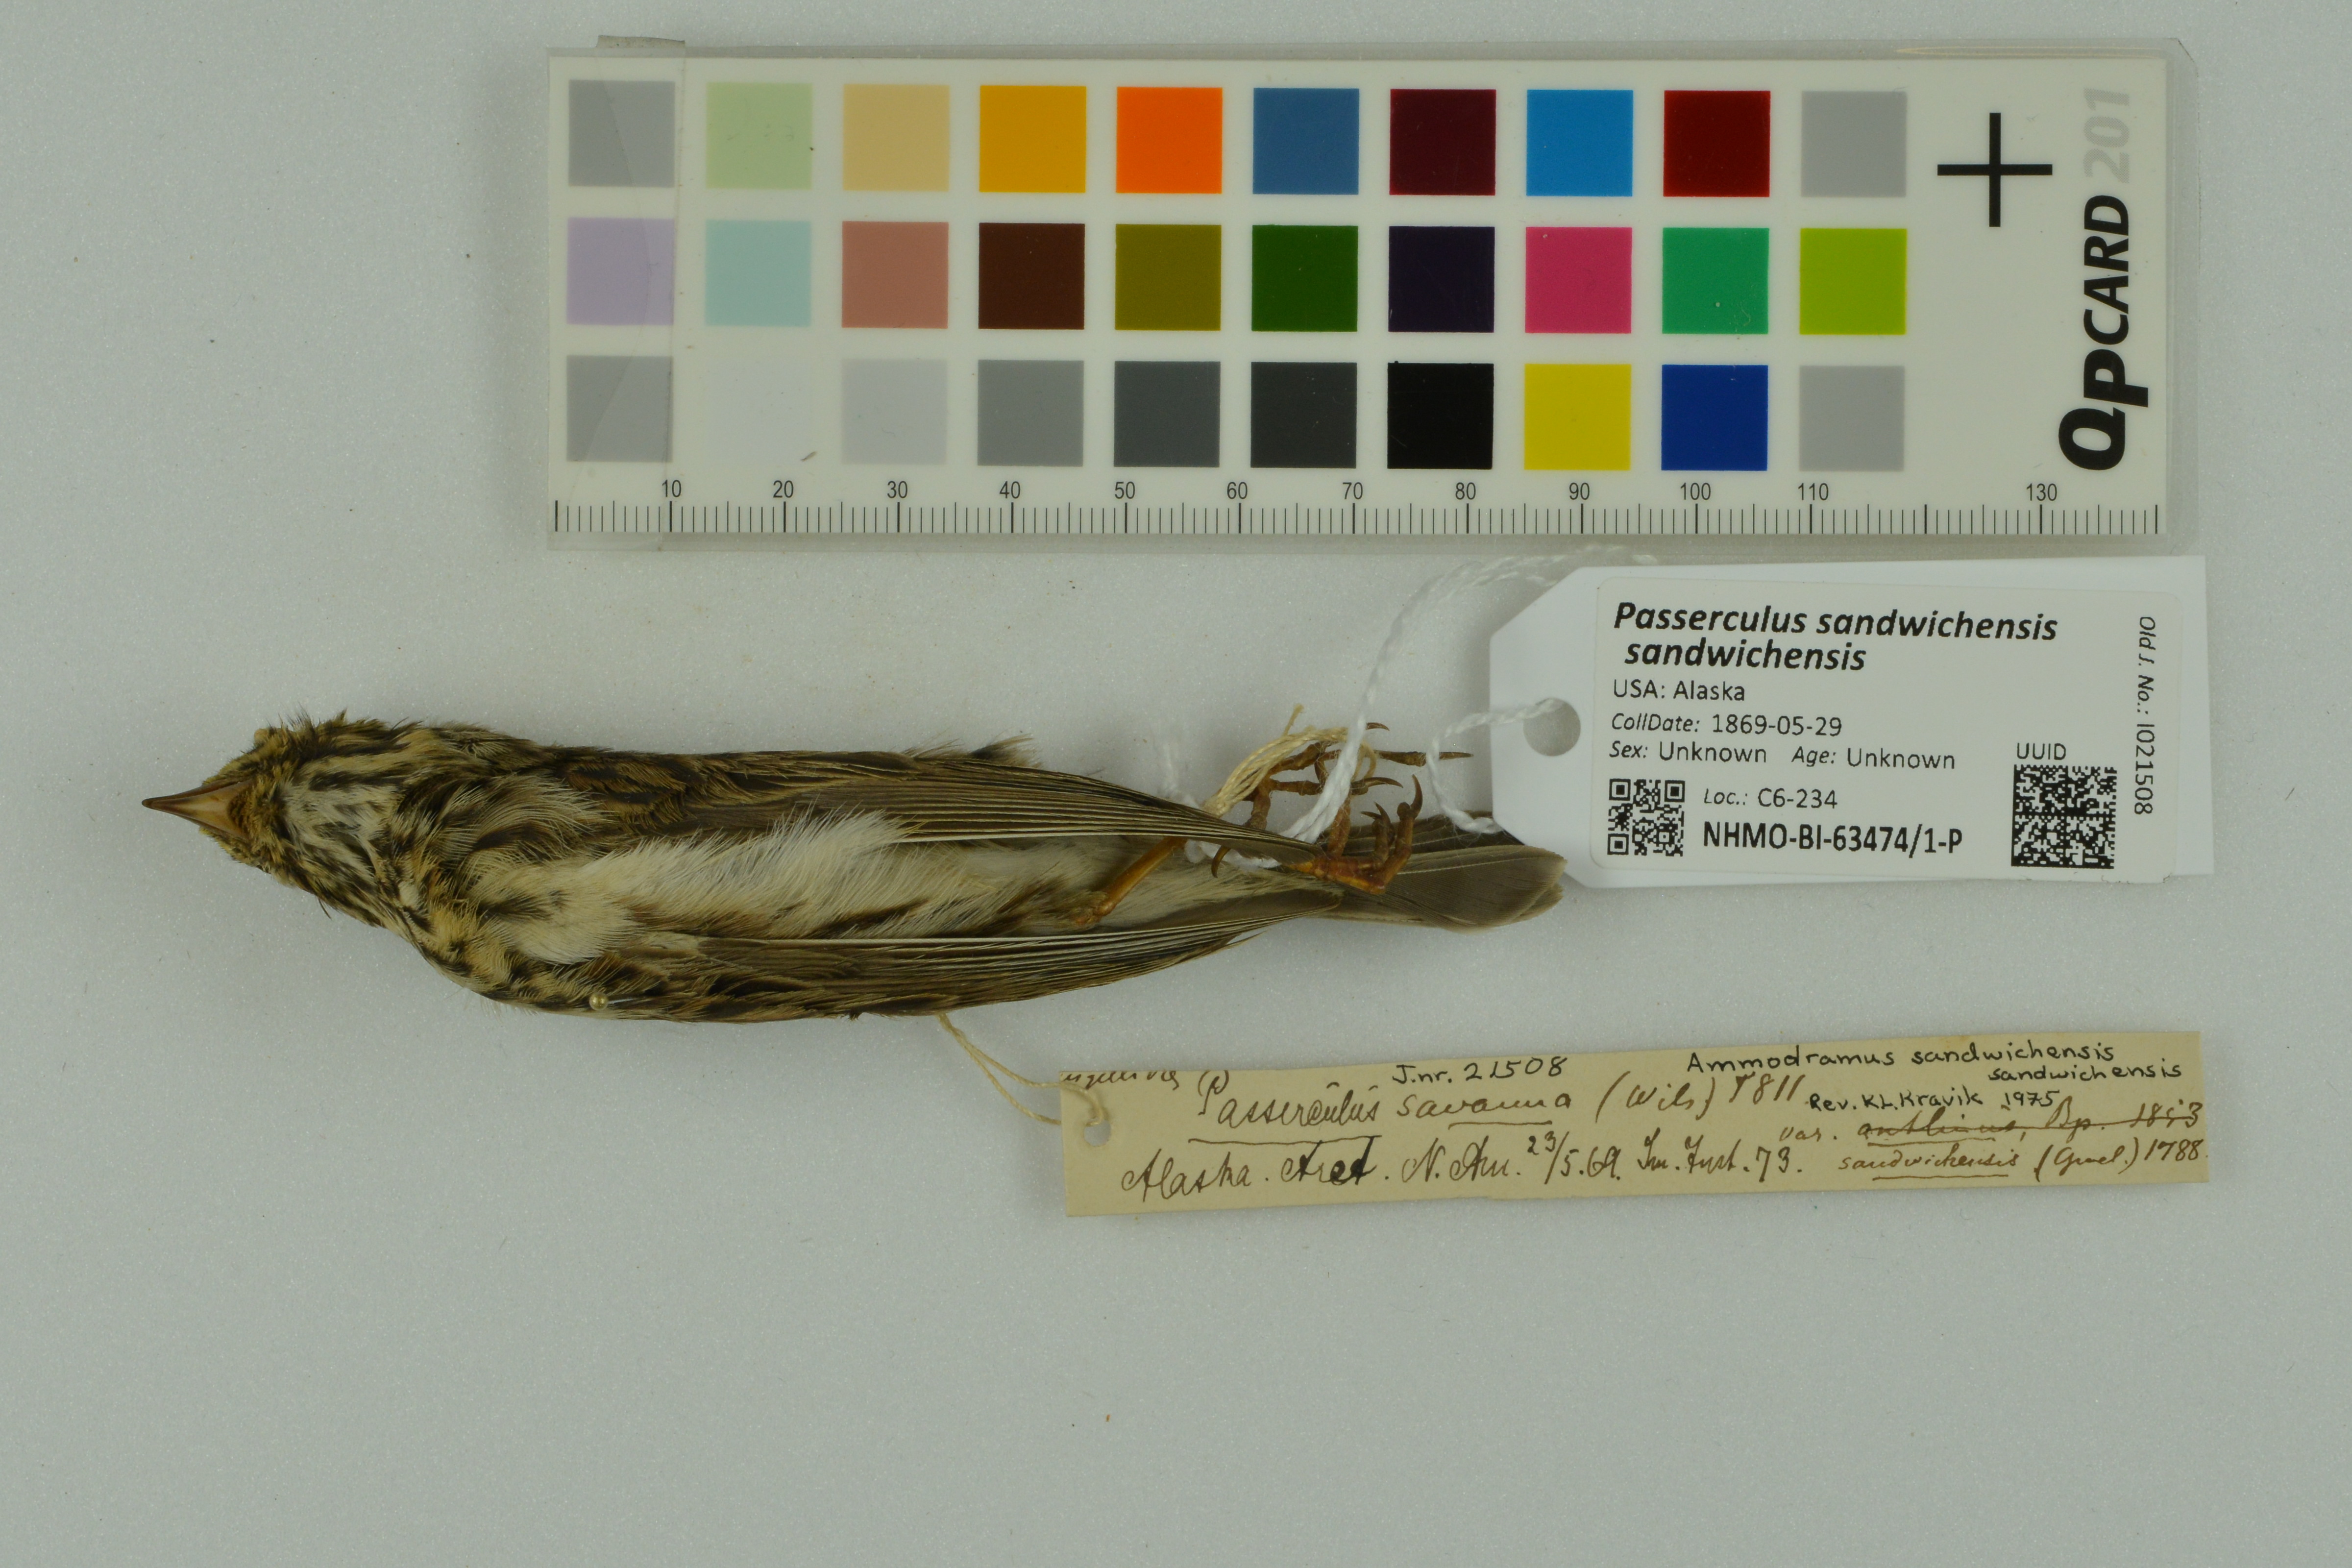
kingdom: Animalia
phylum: Chordata
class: Aves
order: Passeriformes
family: Passerellidae
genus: Passerculus
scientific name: Passerculus sandwichensis
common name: Savannah sparrow
